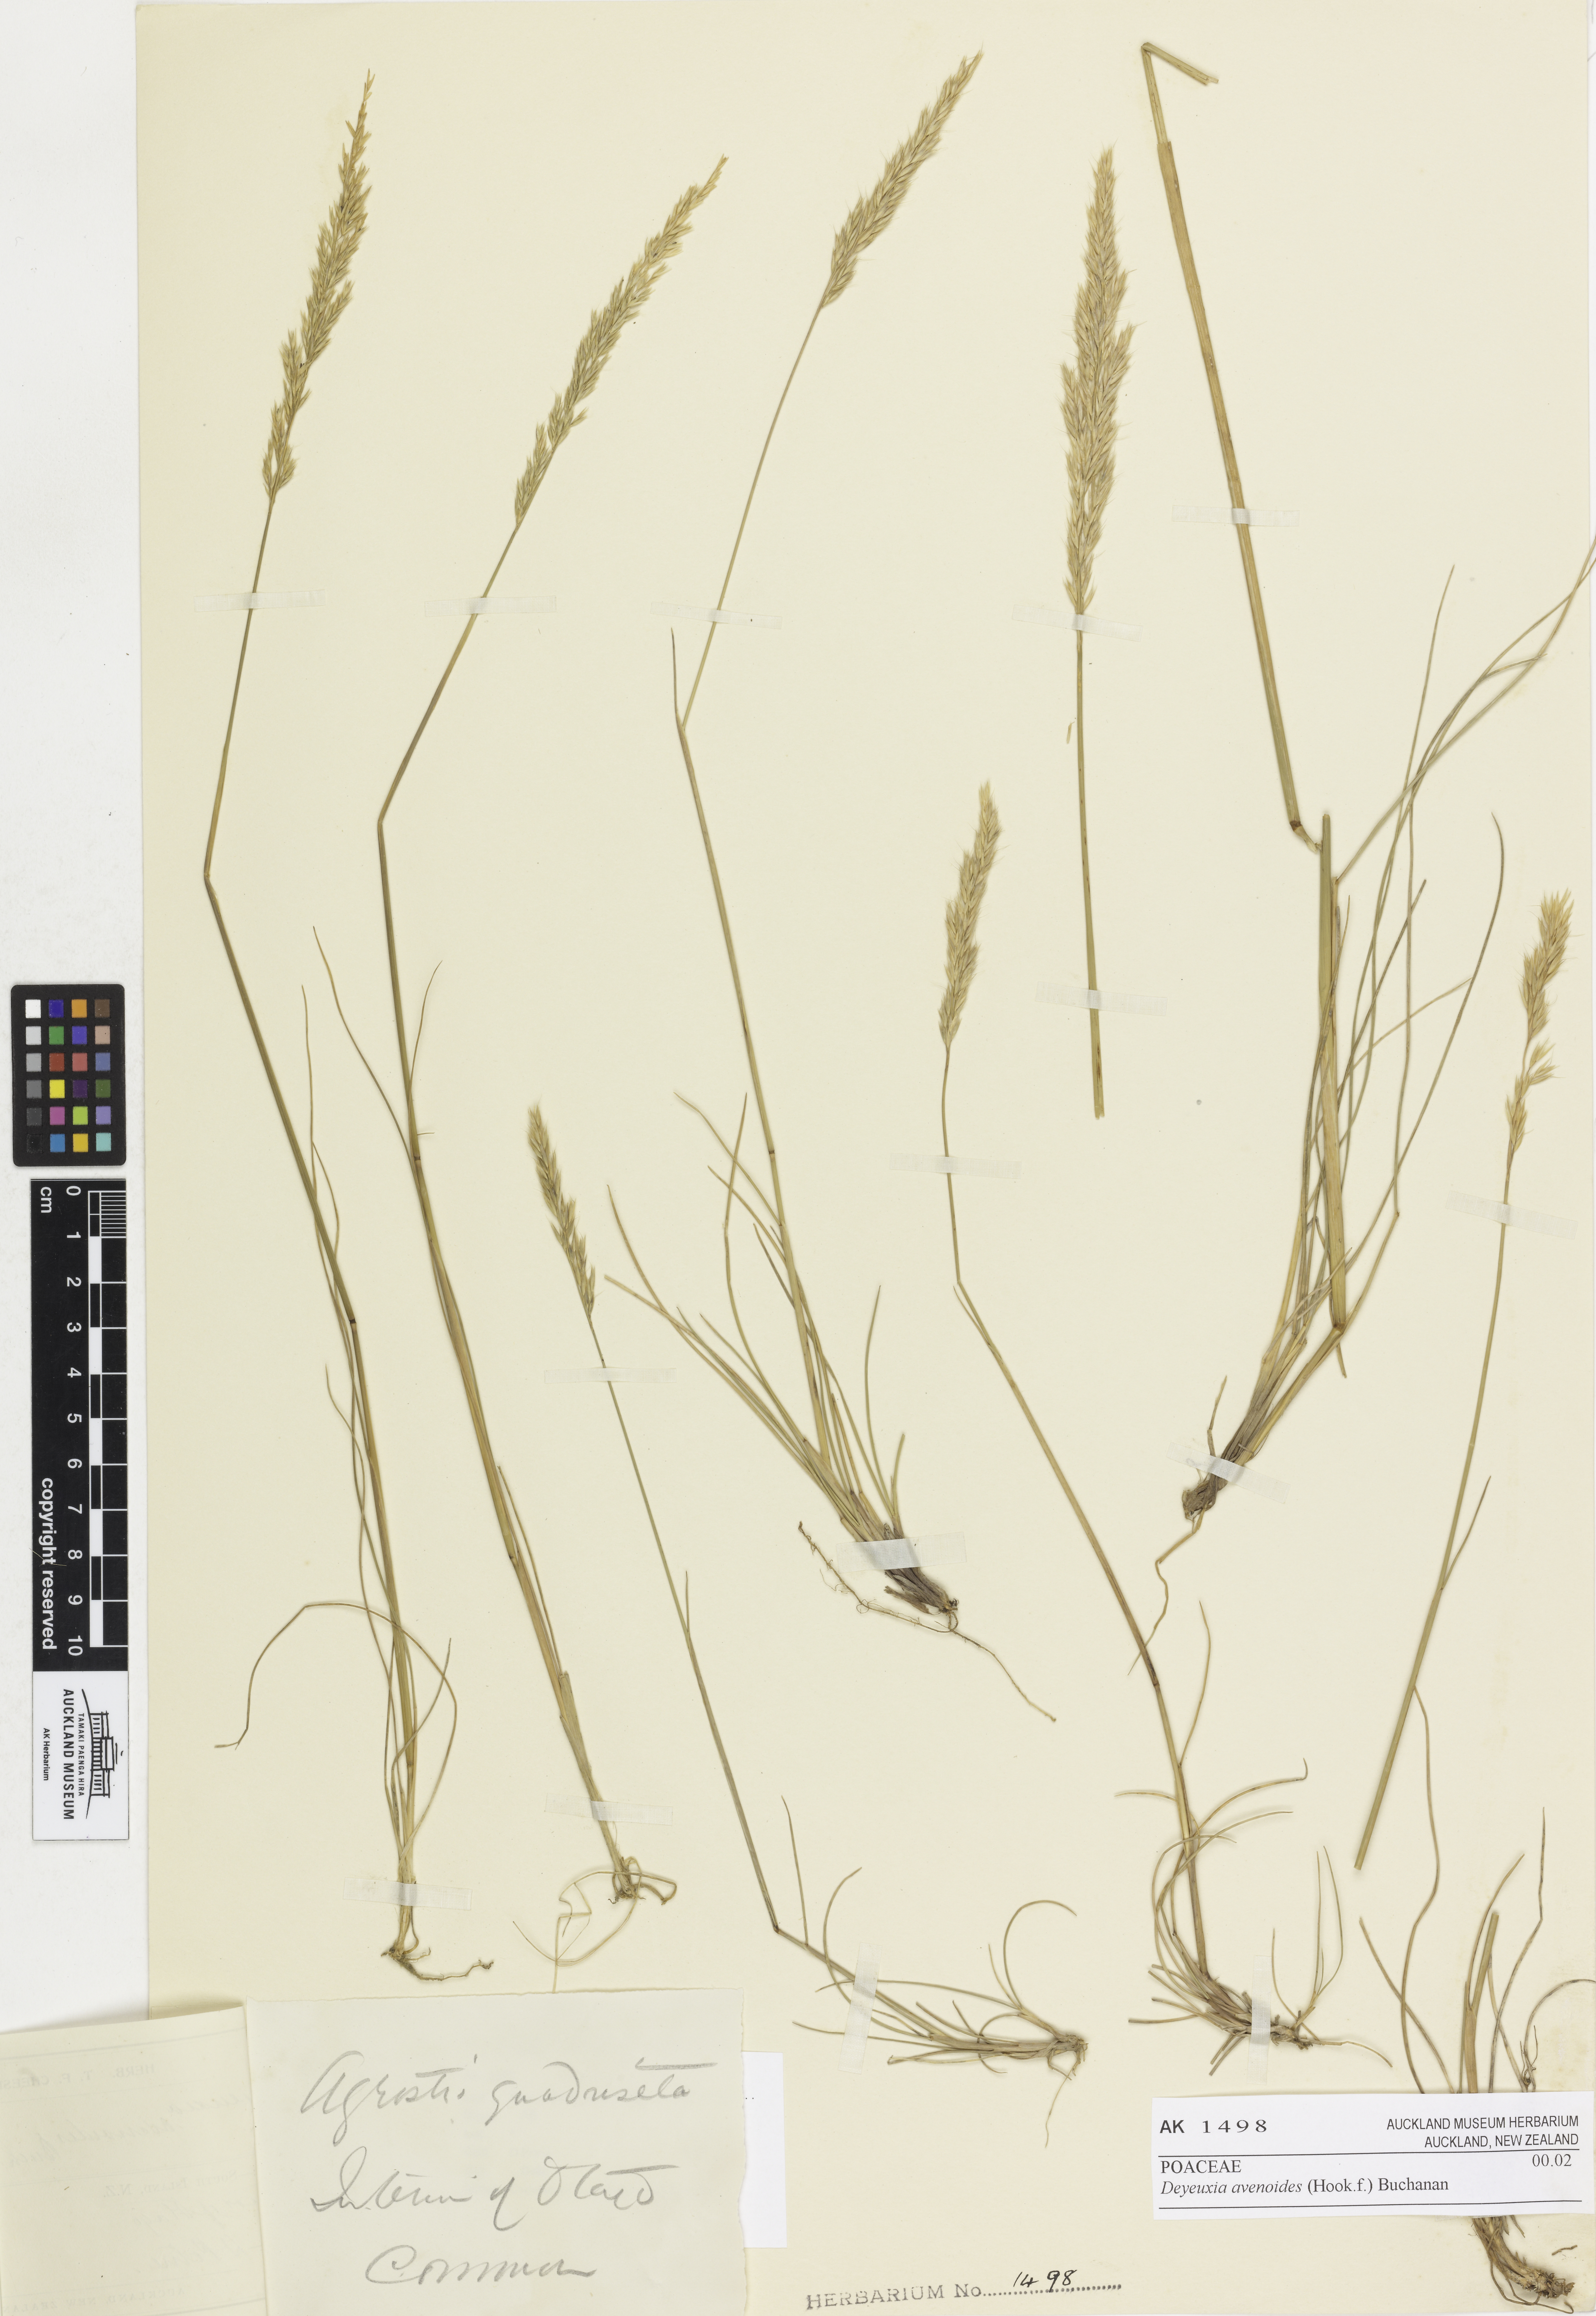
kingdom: Plantae
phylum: Tracheophyta
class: Liliopsida
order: Poales
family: Poaceae
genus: Calamagrostis
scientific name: Calamagrostis avenoides
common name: Mountain oat grass
